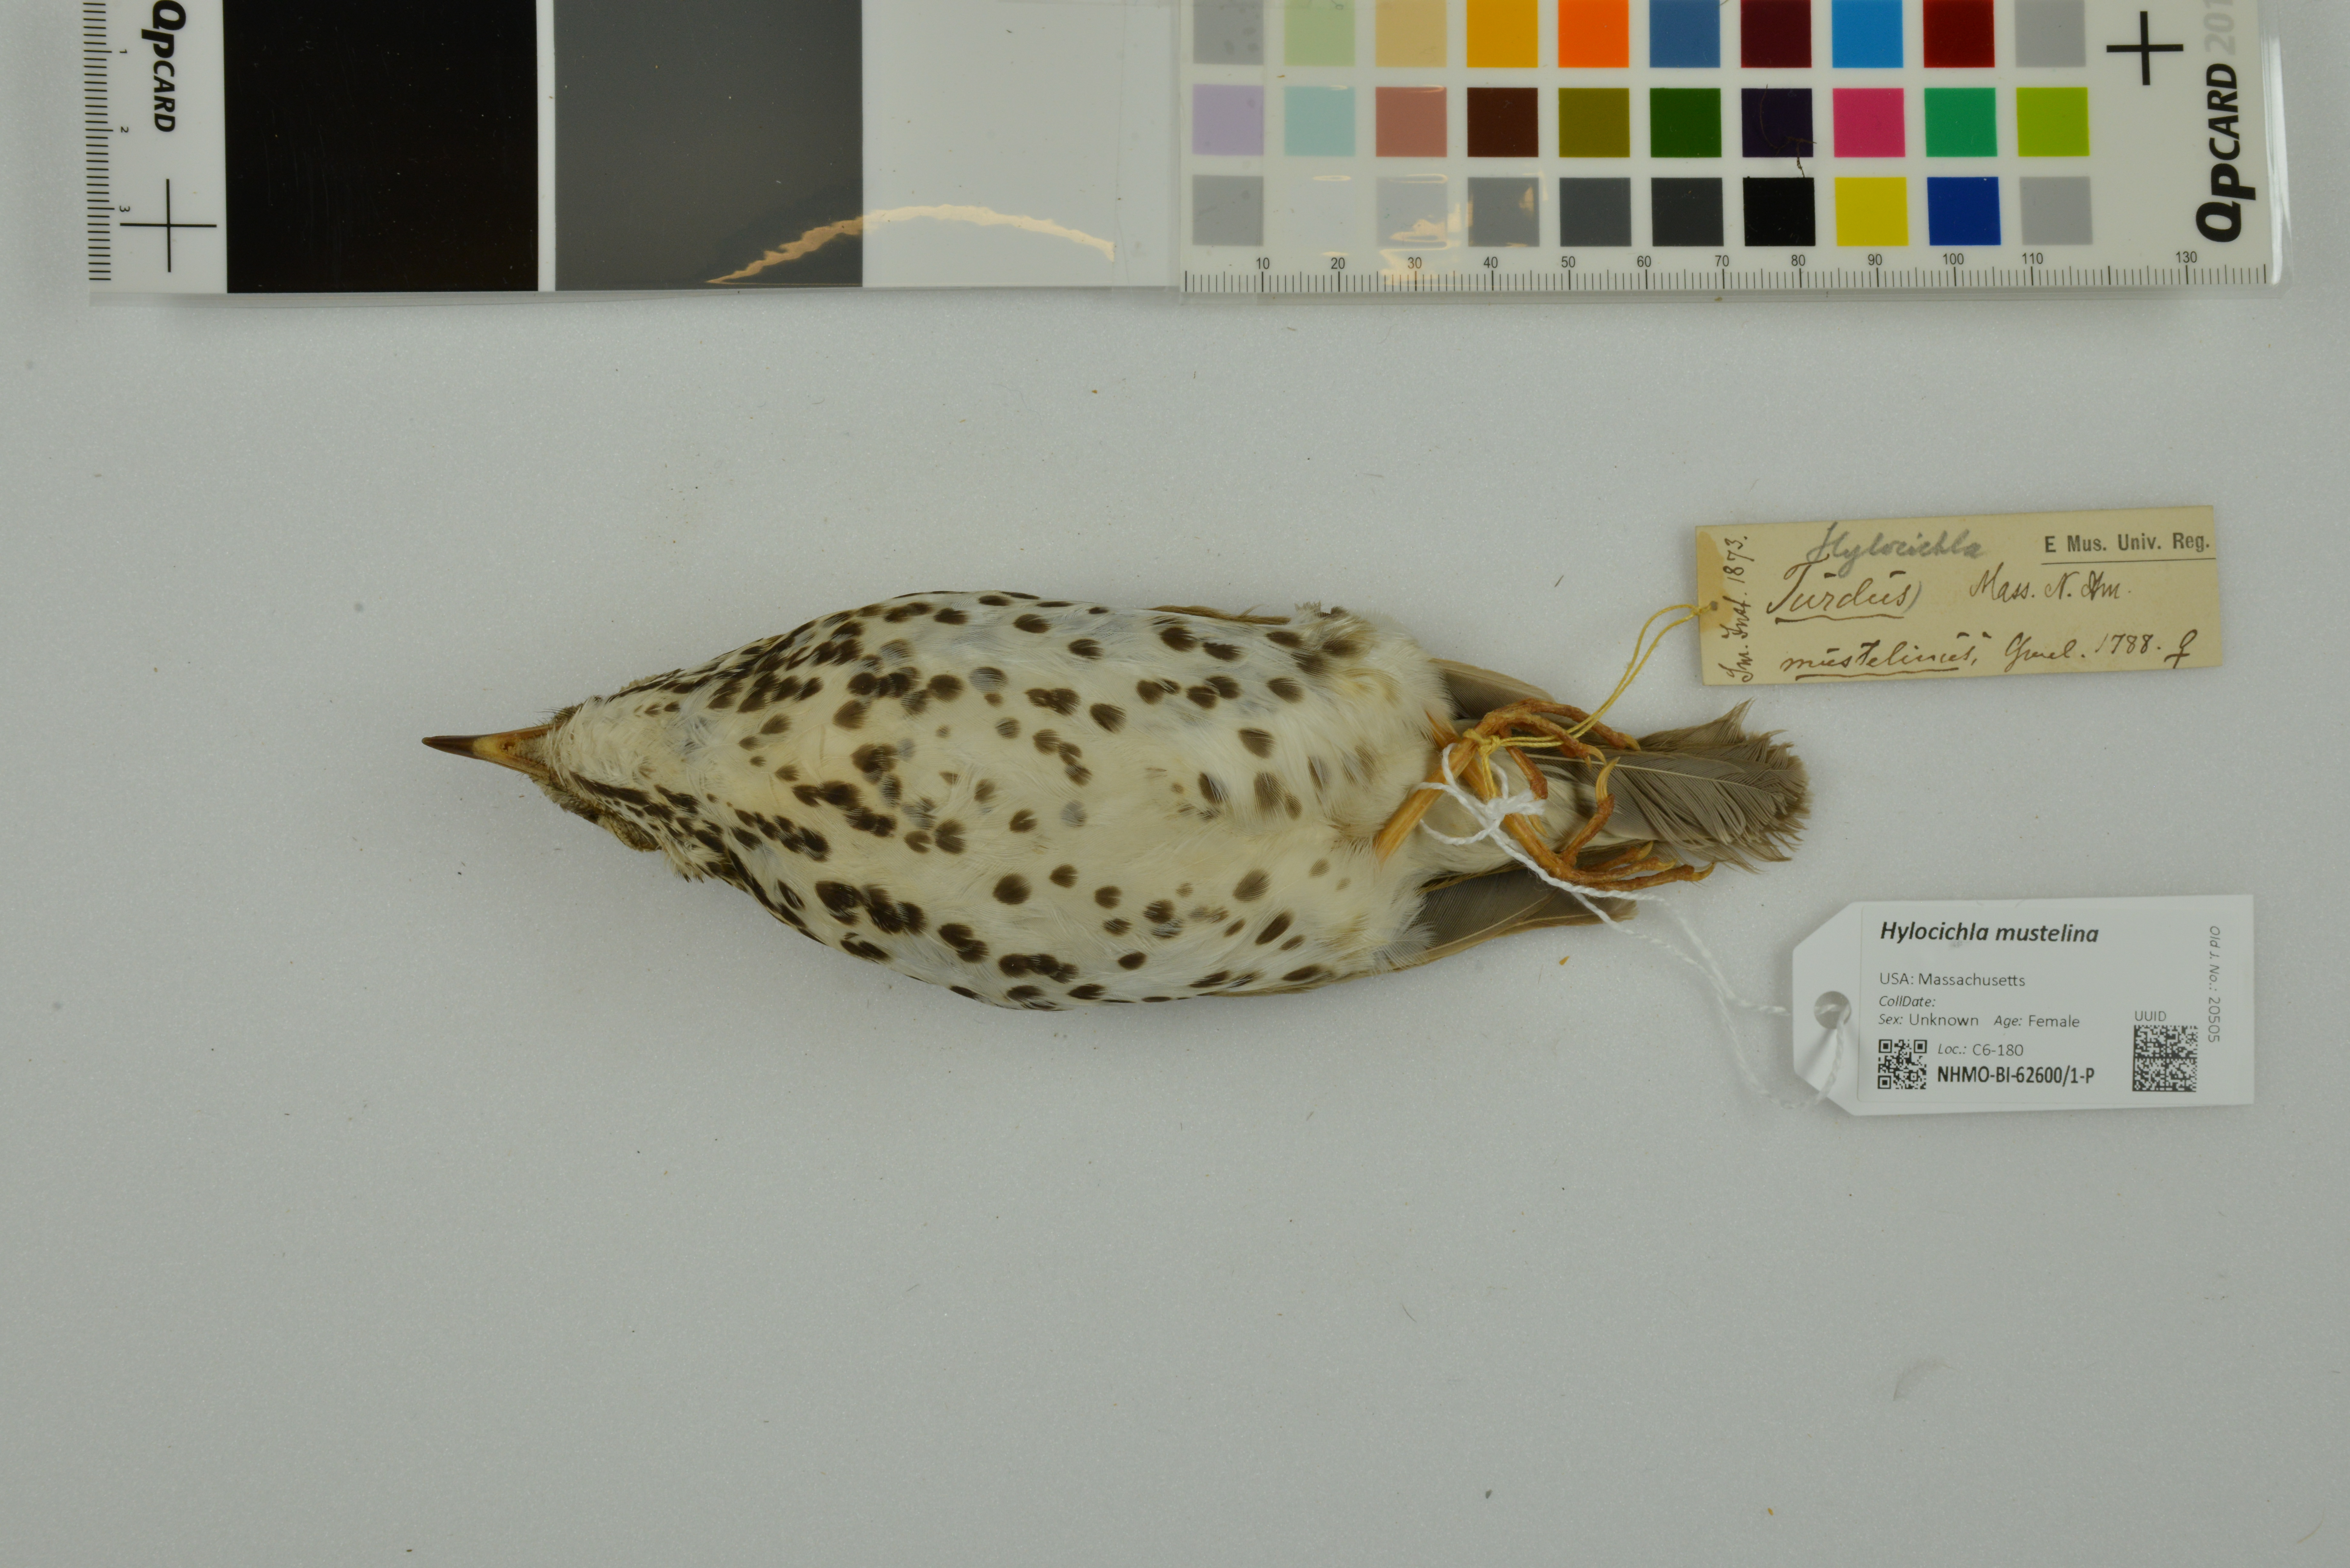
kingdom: Animalia
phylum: Chordata
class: Aves
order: Passeriformes
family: Turdidae
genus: Hylocichla
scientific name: Hylocichla mustelina
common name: Wood thrush
